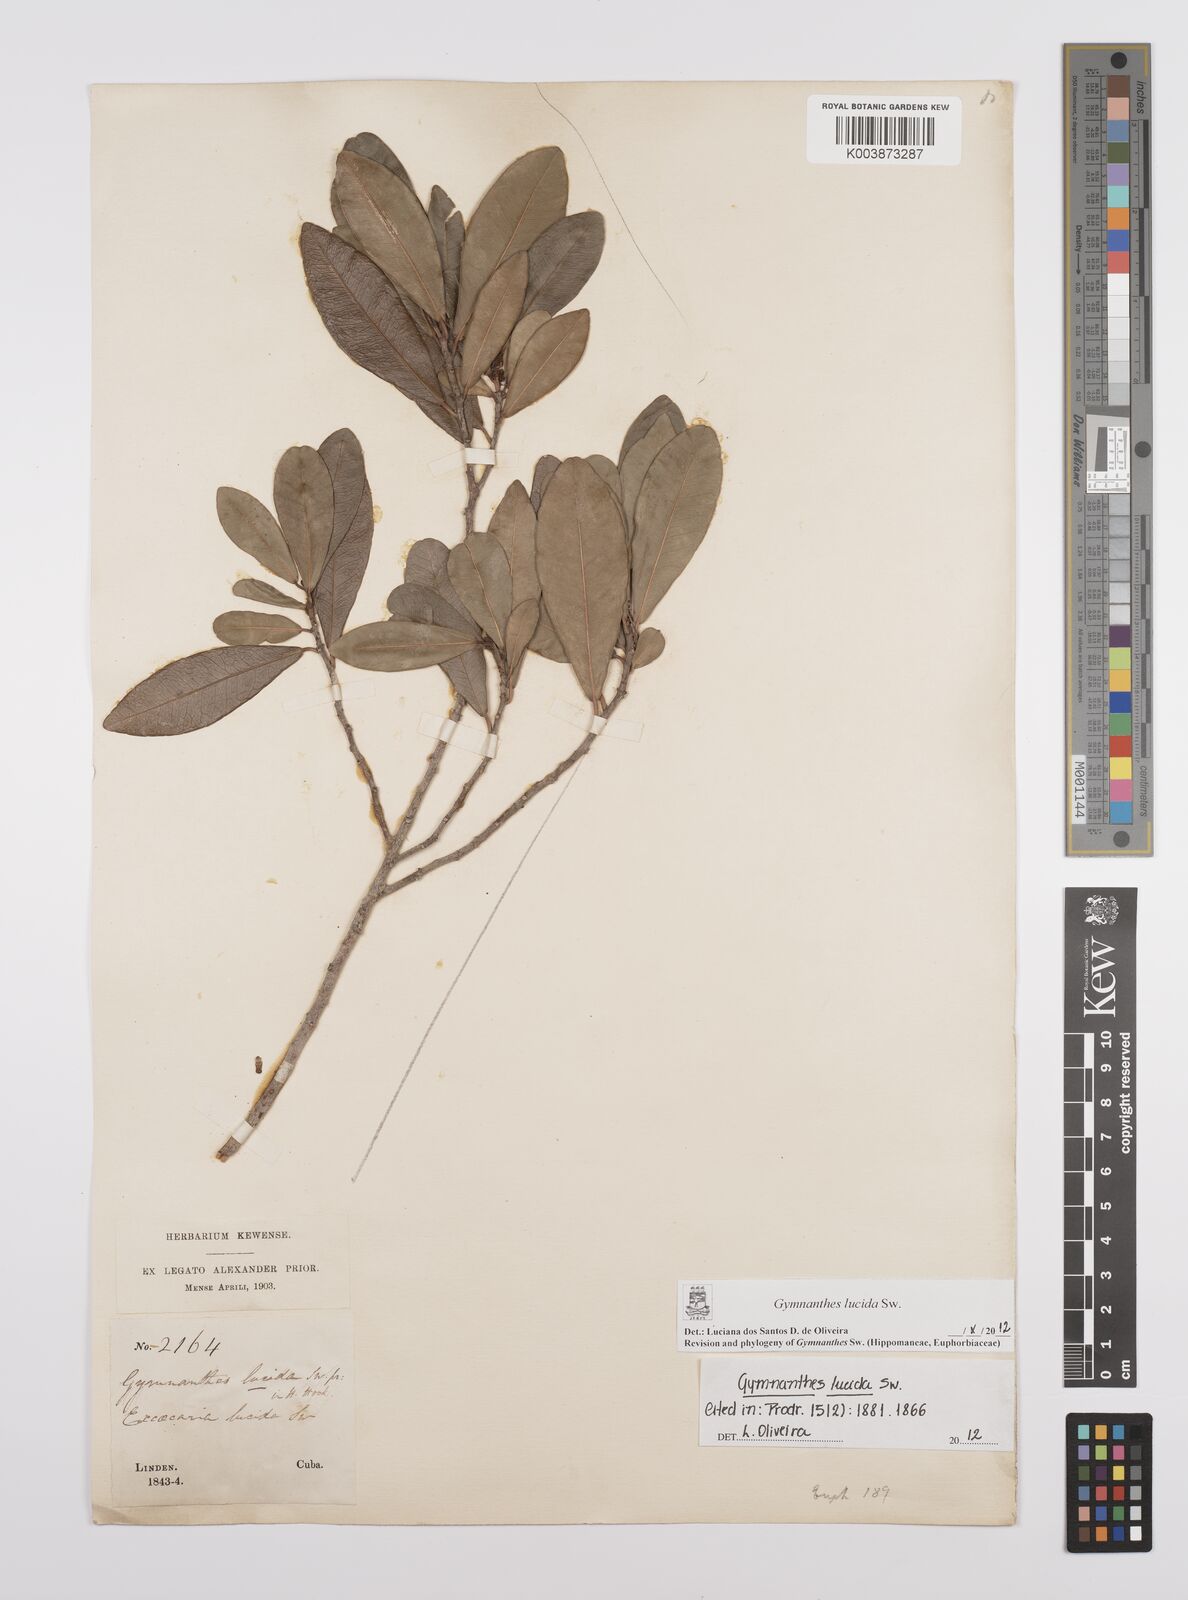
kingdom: Plantae
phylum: Tracheophyta
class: Magnoliopsida
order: Malpighiales
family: Euphorbiaceae
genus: Gymnanthes
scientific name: Gymnanthes lucida
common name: Oysterwood
